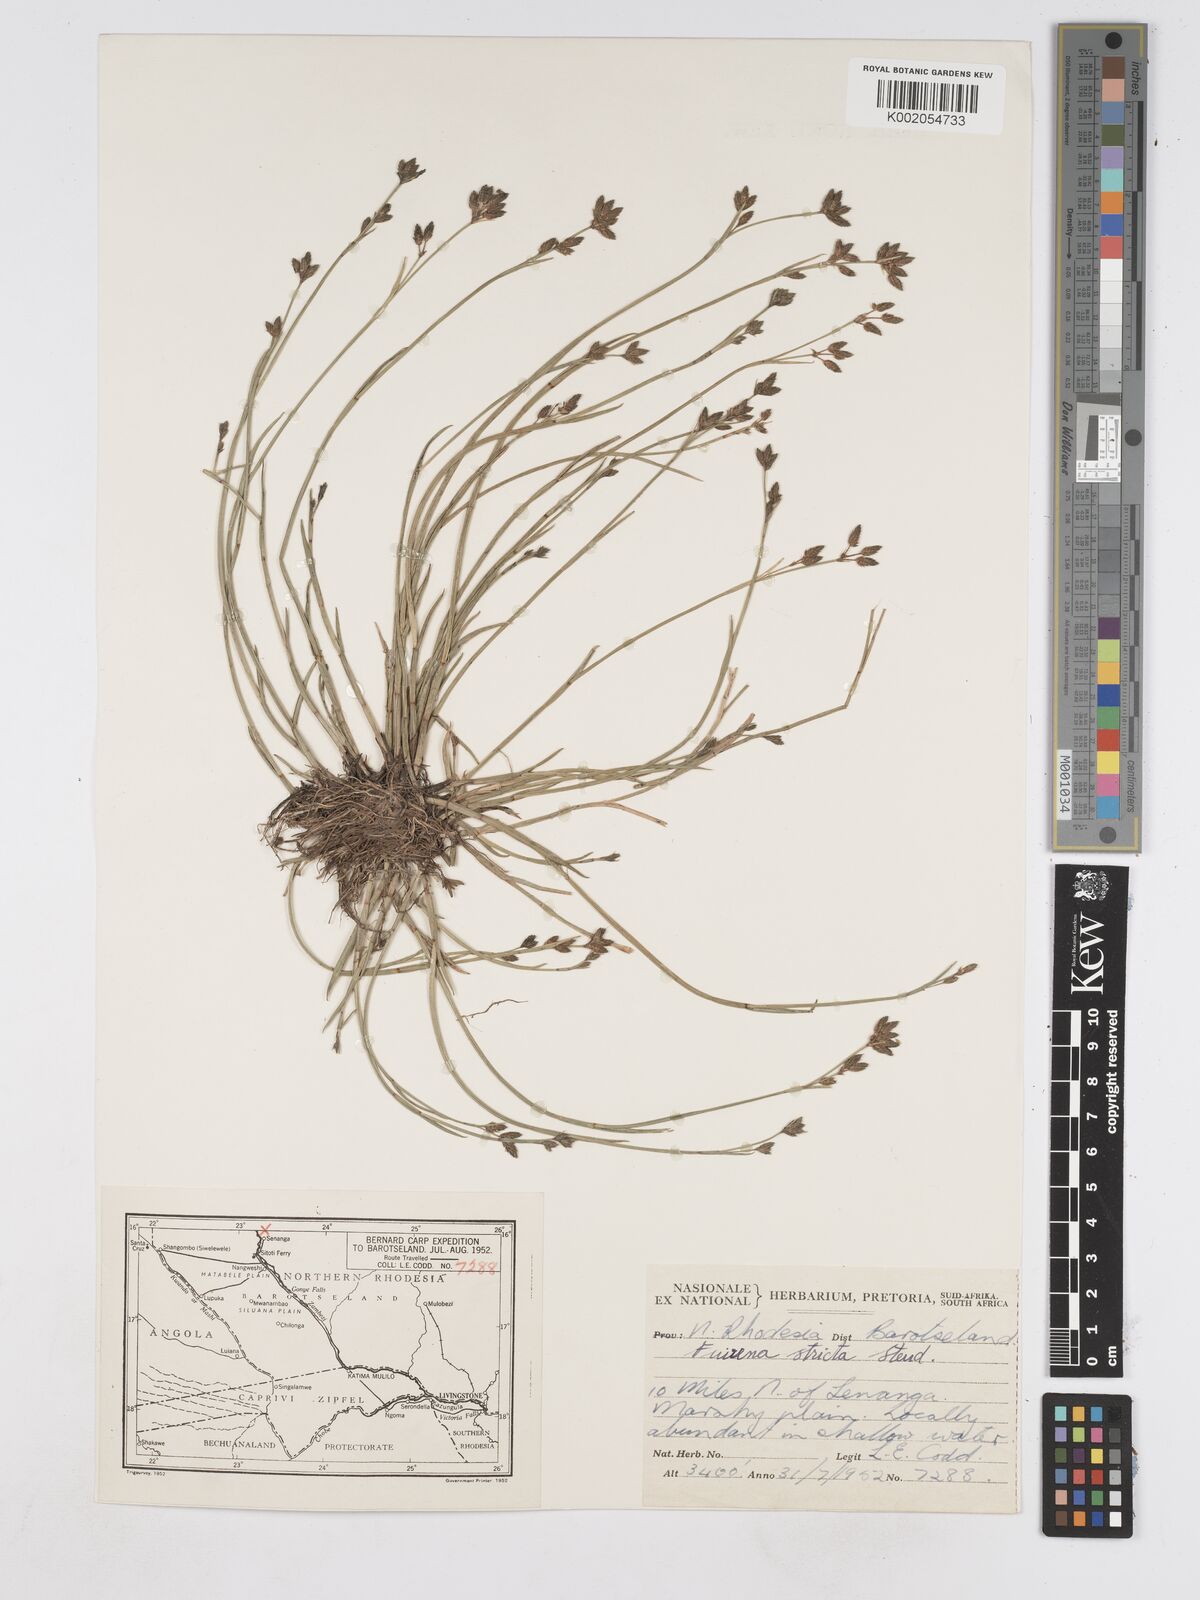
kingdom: Plantae
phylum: Tracheophyta
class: Liliopsida
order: Poales
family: Cyperaceae
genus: Fuirena
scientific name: Fuirena stricta
